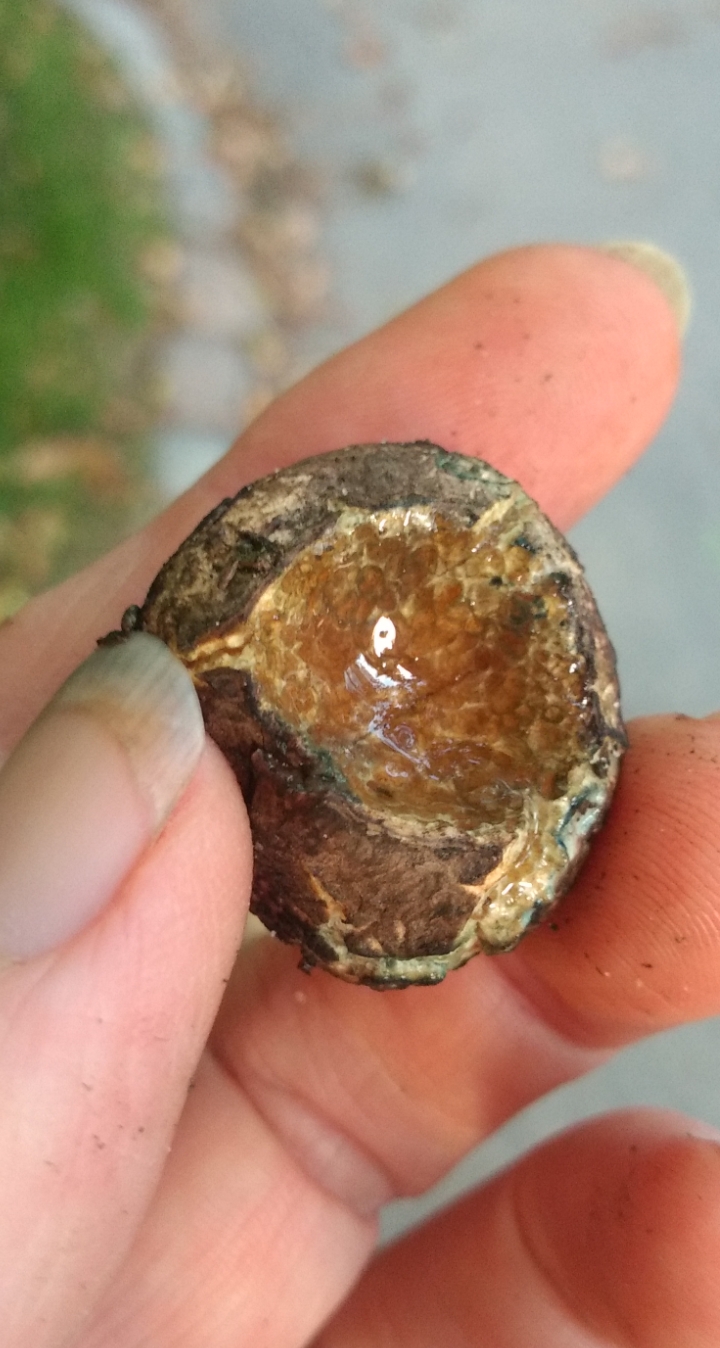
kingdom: Fungi
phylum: Basidiomycota
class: Agaricomycetes
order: Boletales
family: Boletaceae
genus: Octaviania
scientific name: Octaviania
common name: løvtrøffel
